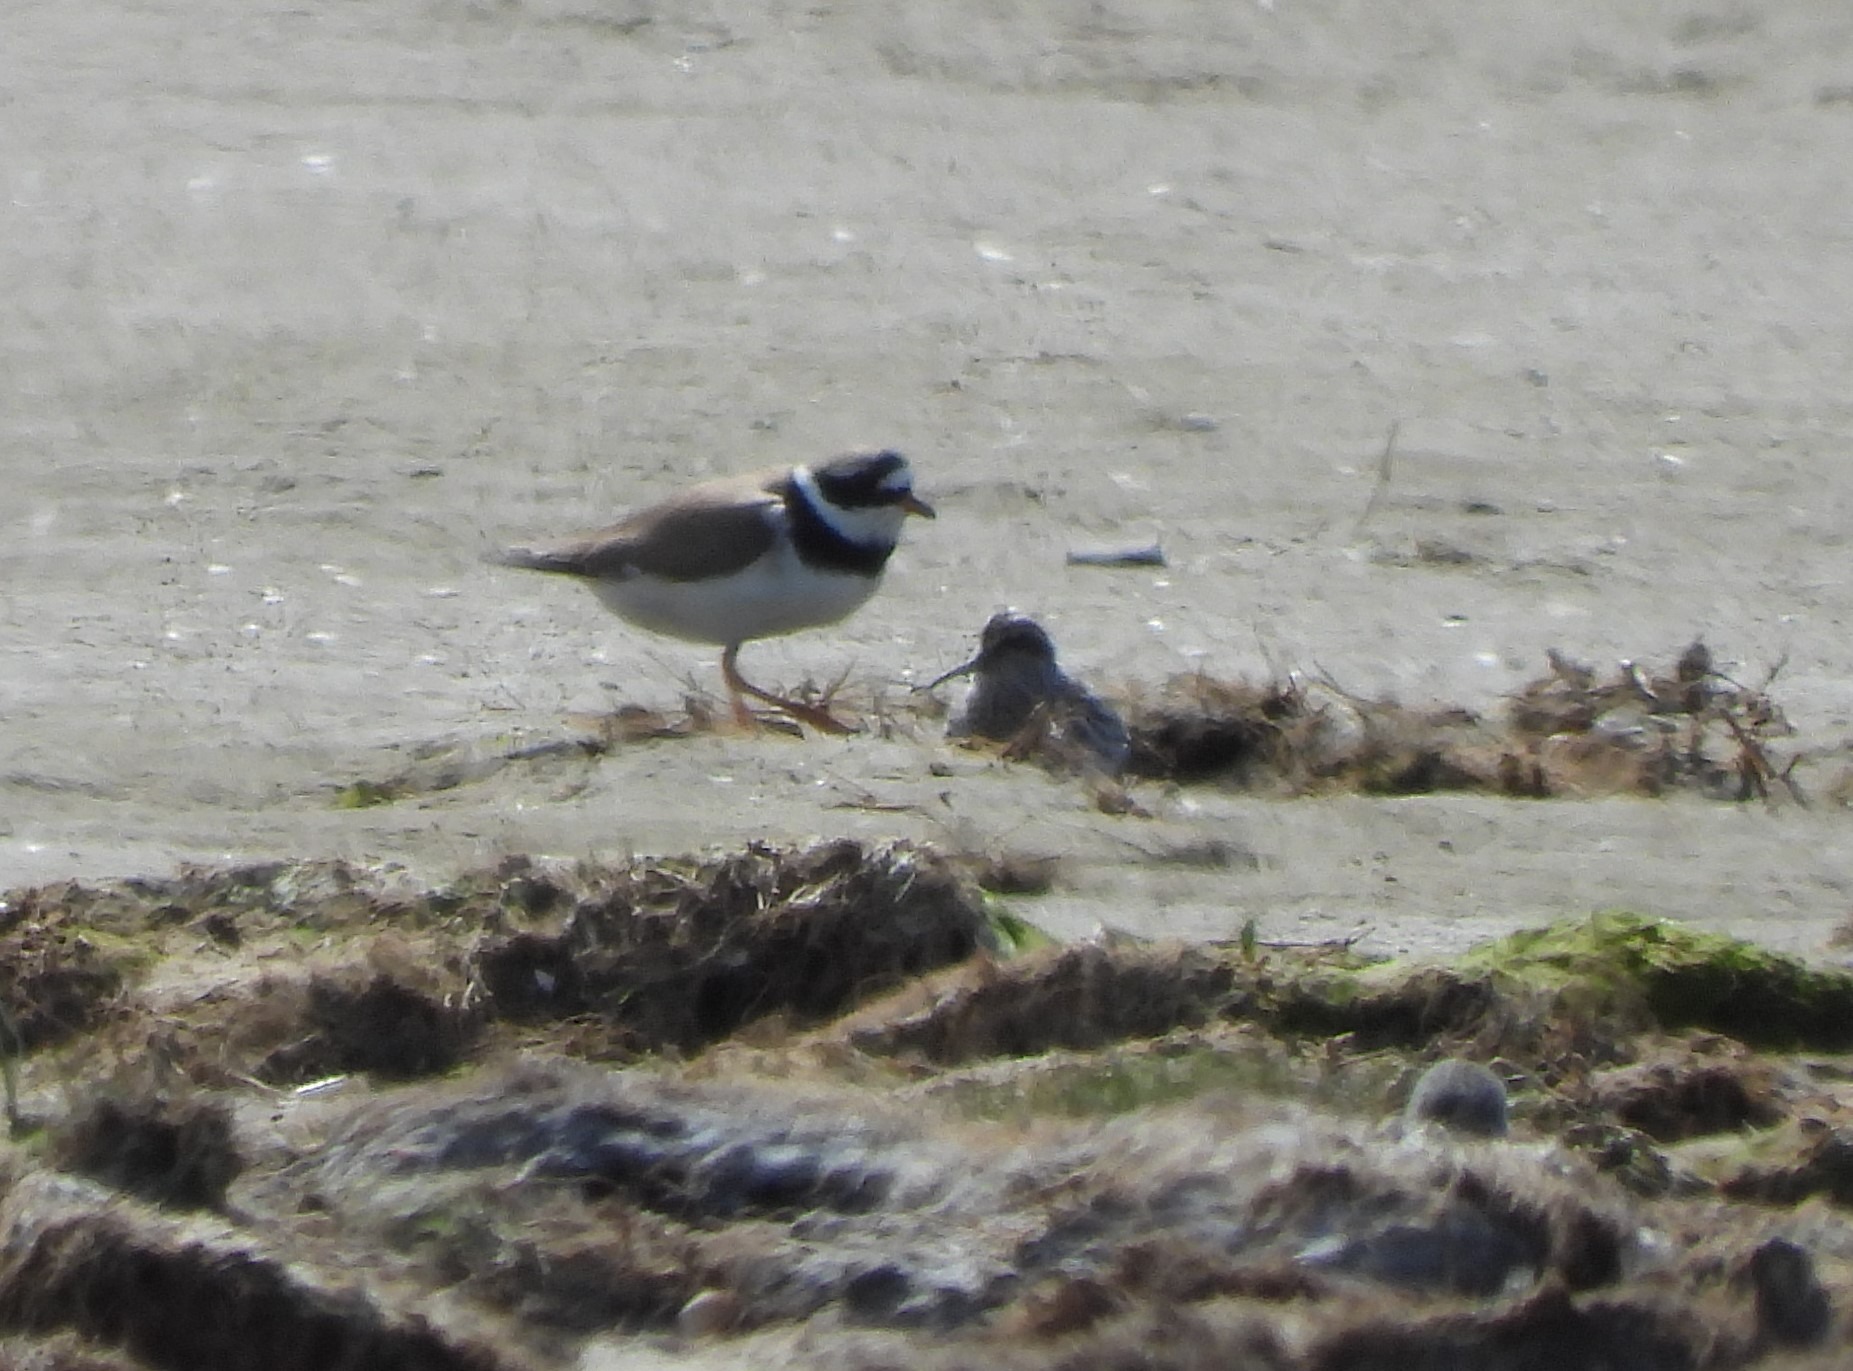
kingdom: Animalia
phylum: Chordata
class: Aves
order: Charadriiformes
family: Scolopacidae
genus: Calidris
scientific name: Calidris falcinellus
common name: Kærløber
